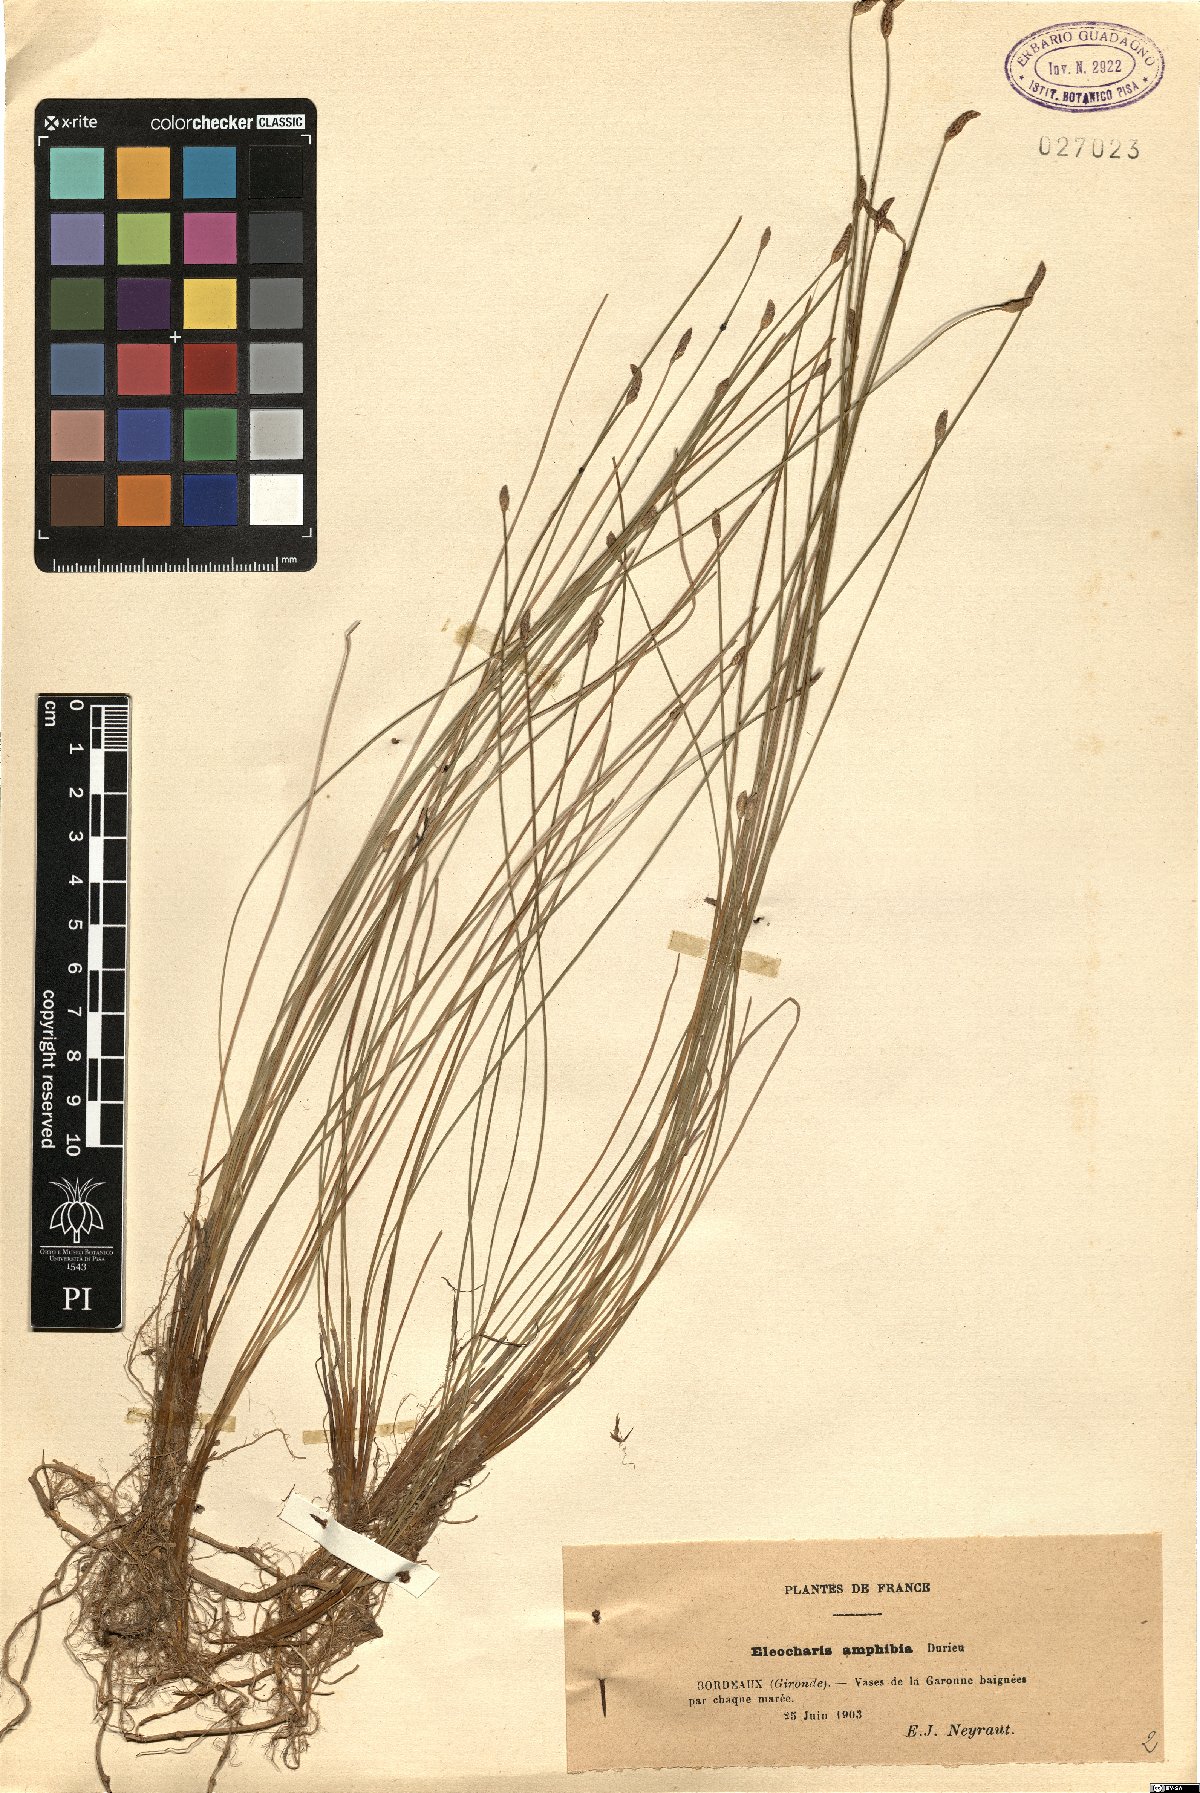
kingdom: Plantae
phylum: Tracheophyta
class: Liliopsida
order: Poales
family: Cyperaceae
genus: Eleocharis
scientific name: Eleocharis bonariensis
